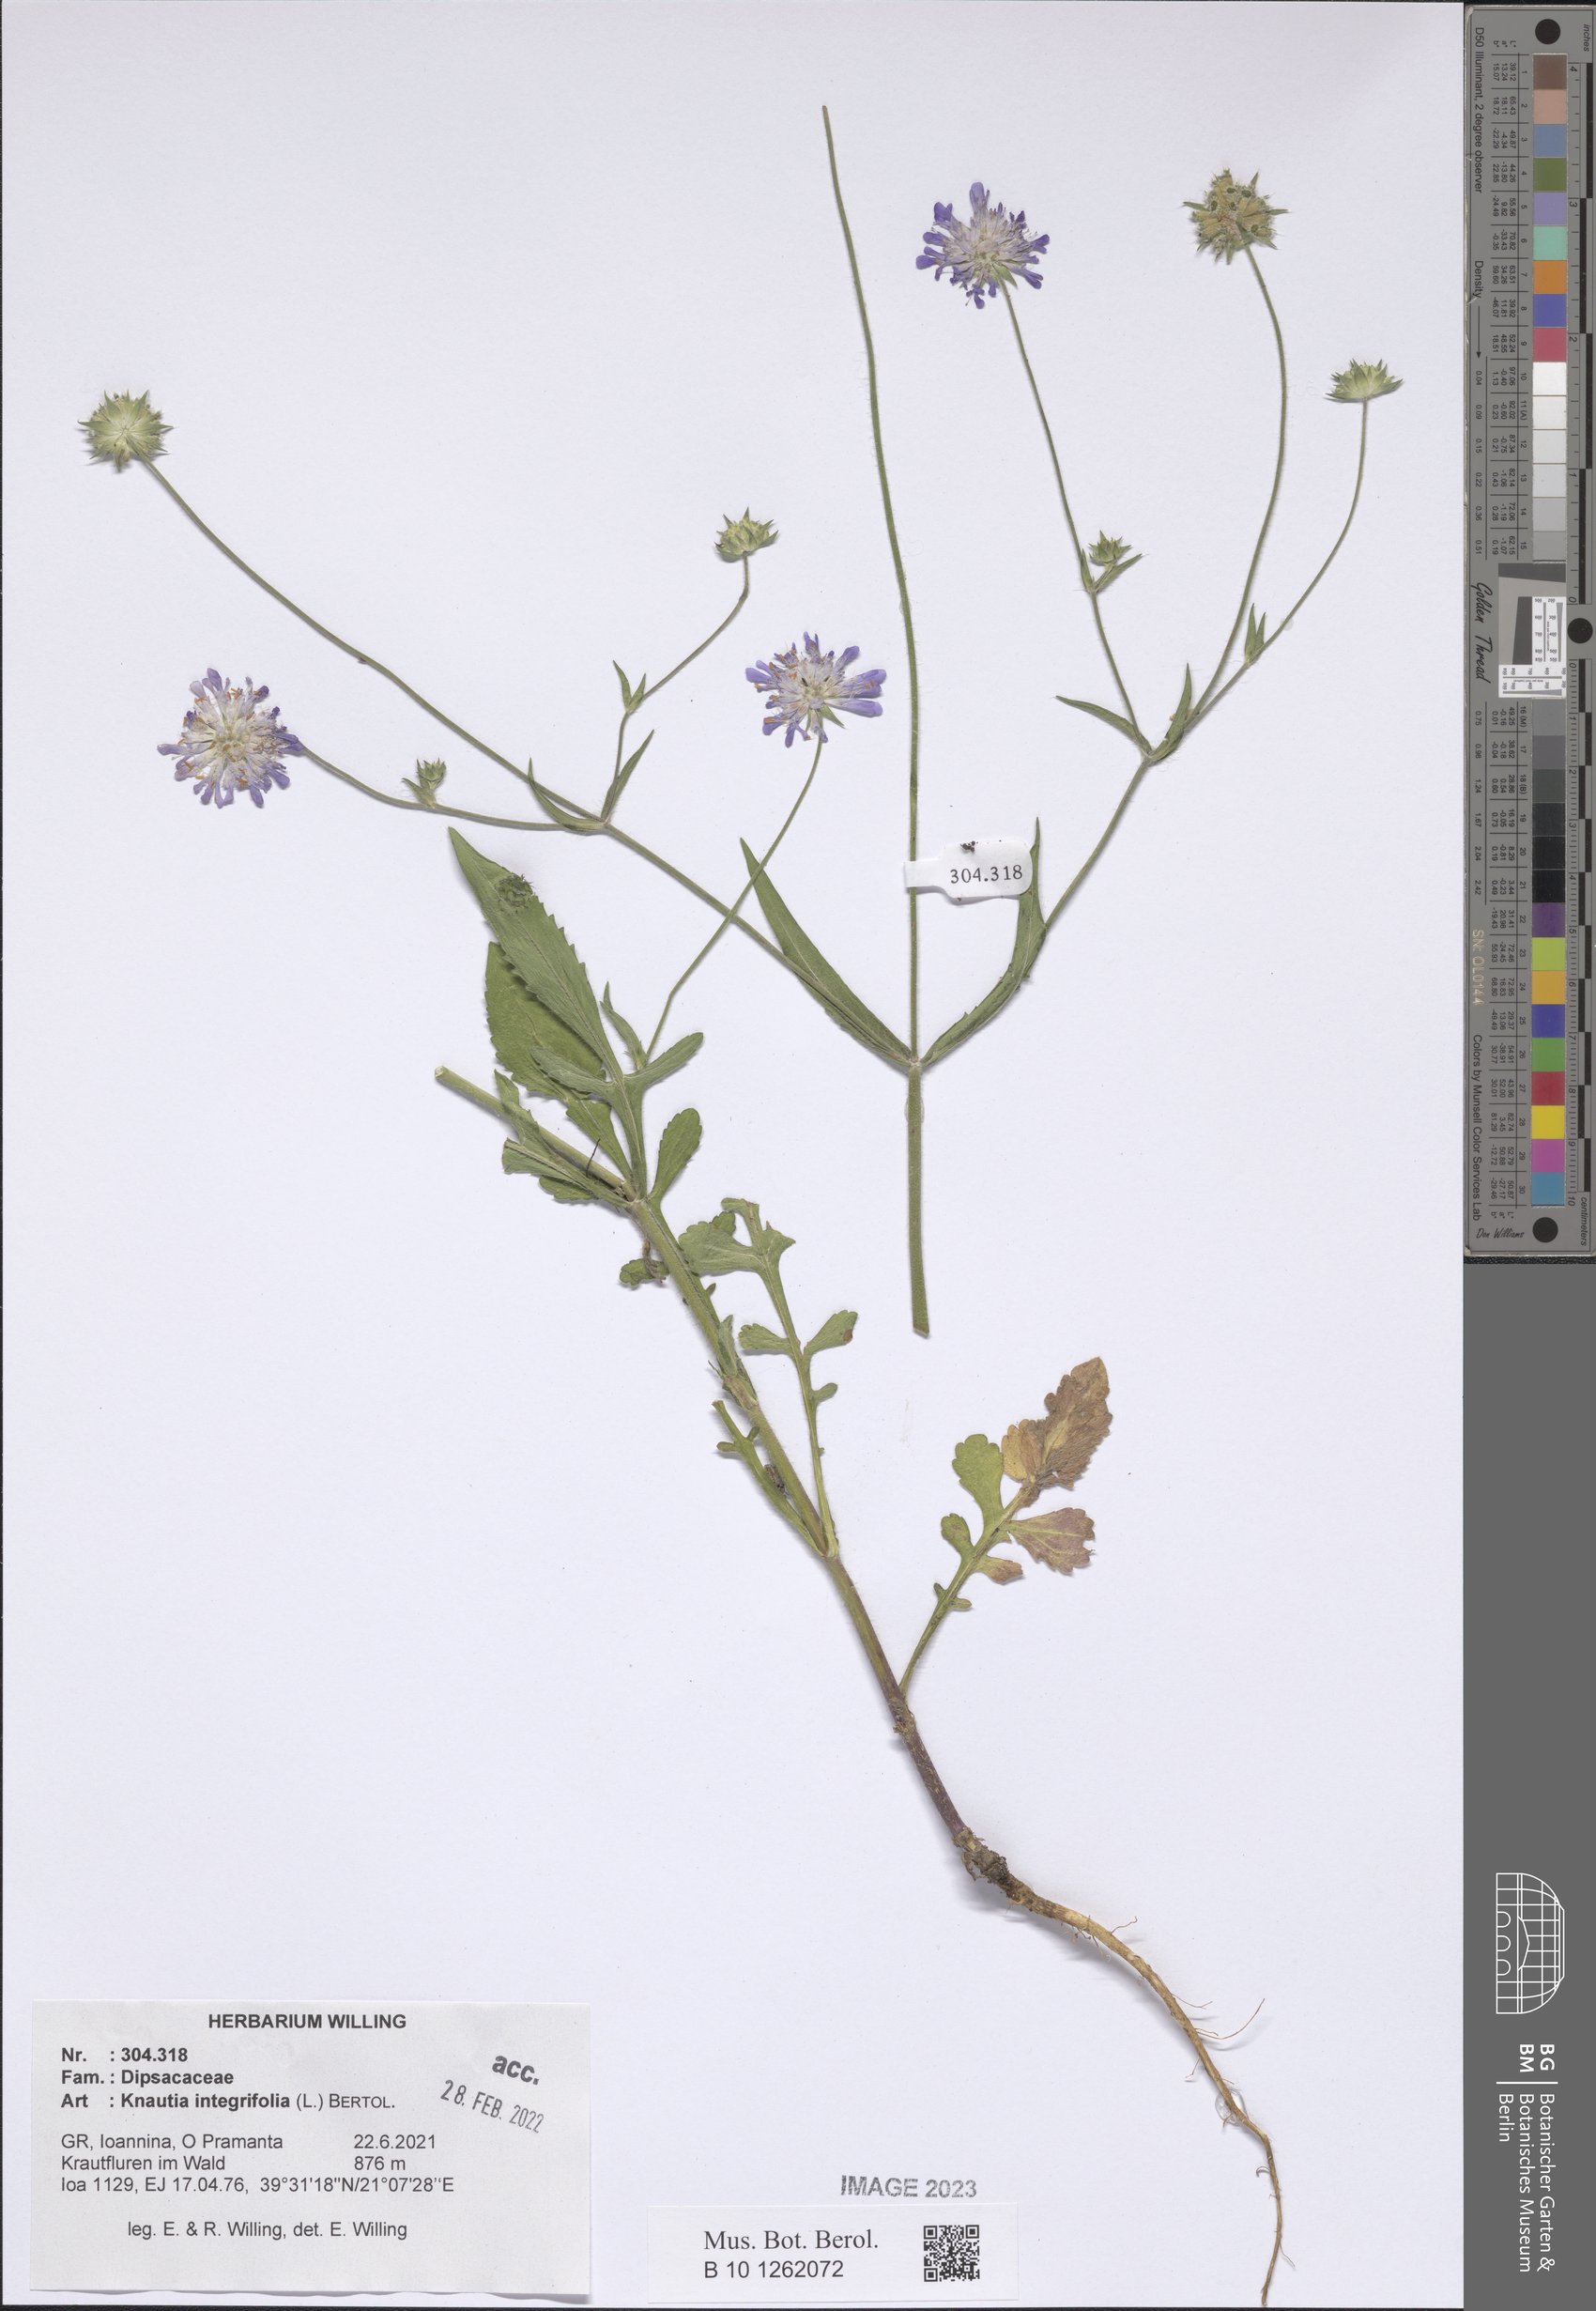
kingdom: Plantae
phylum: Tracheophyta
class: Magnoliopsida
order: Dipsacales
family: Caprifoliaceae
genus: Knautia
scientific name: Knautia integrifolia
